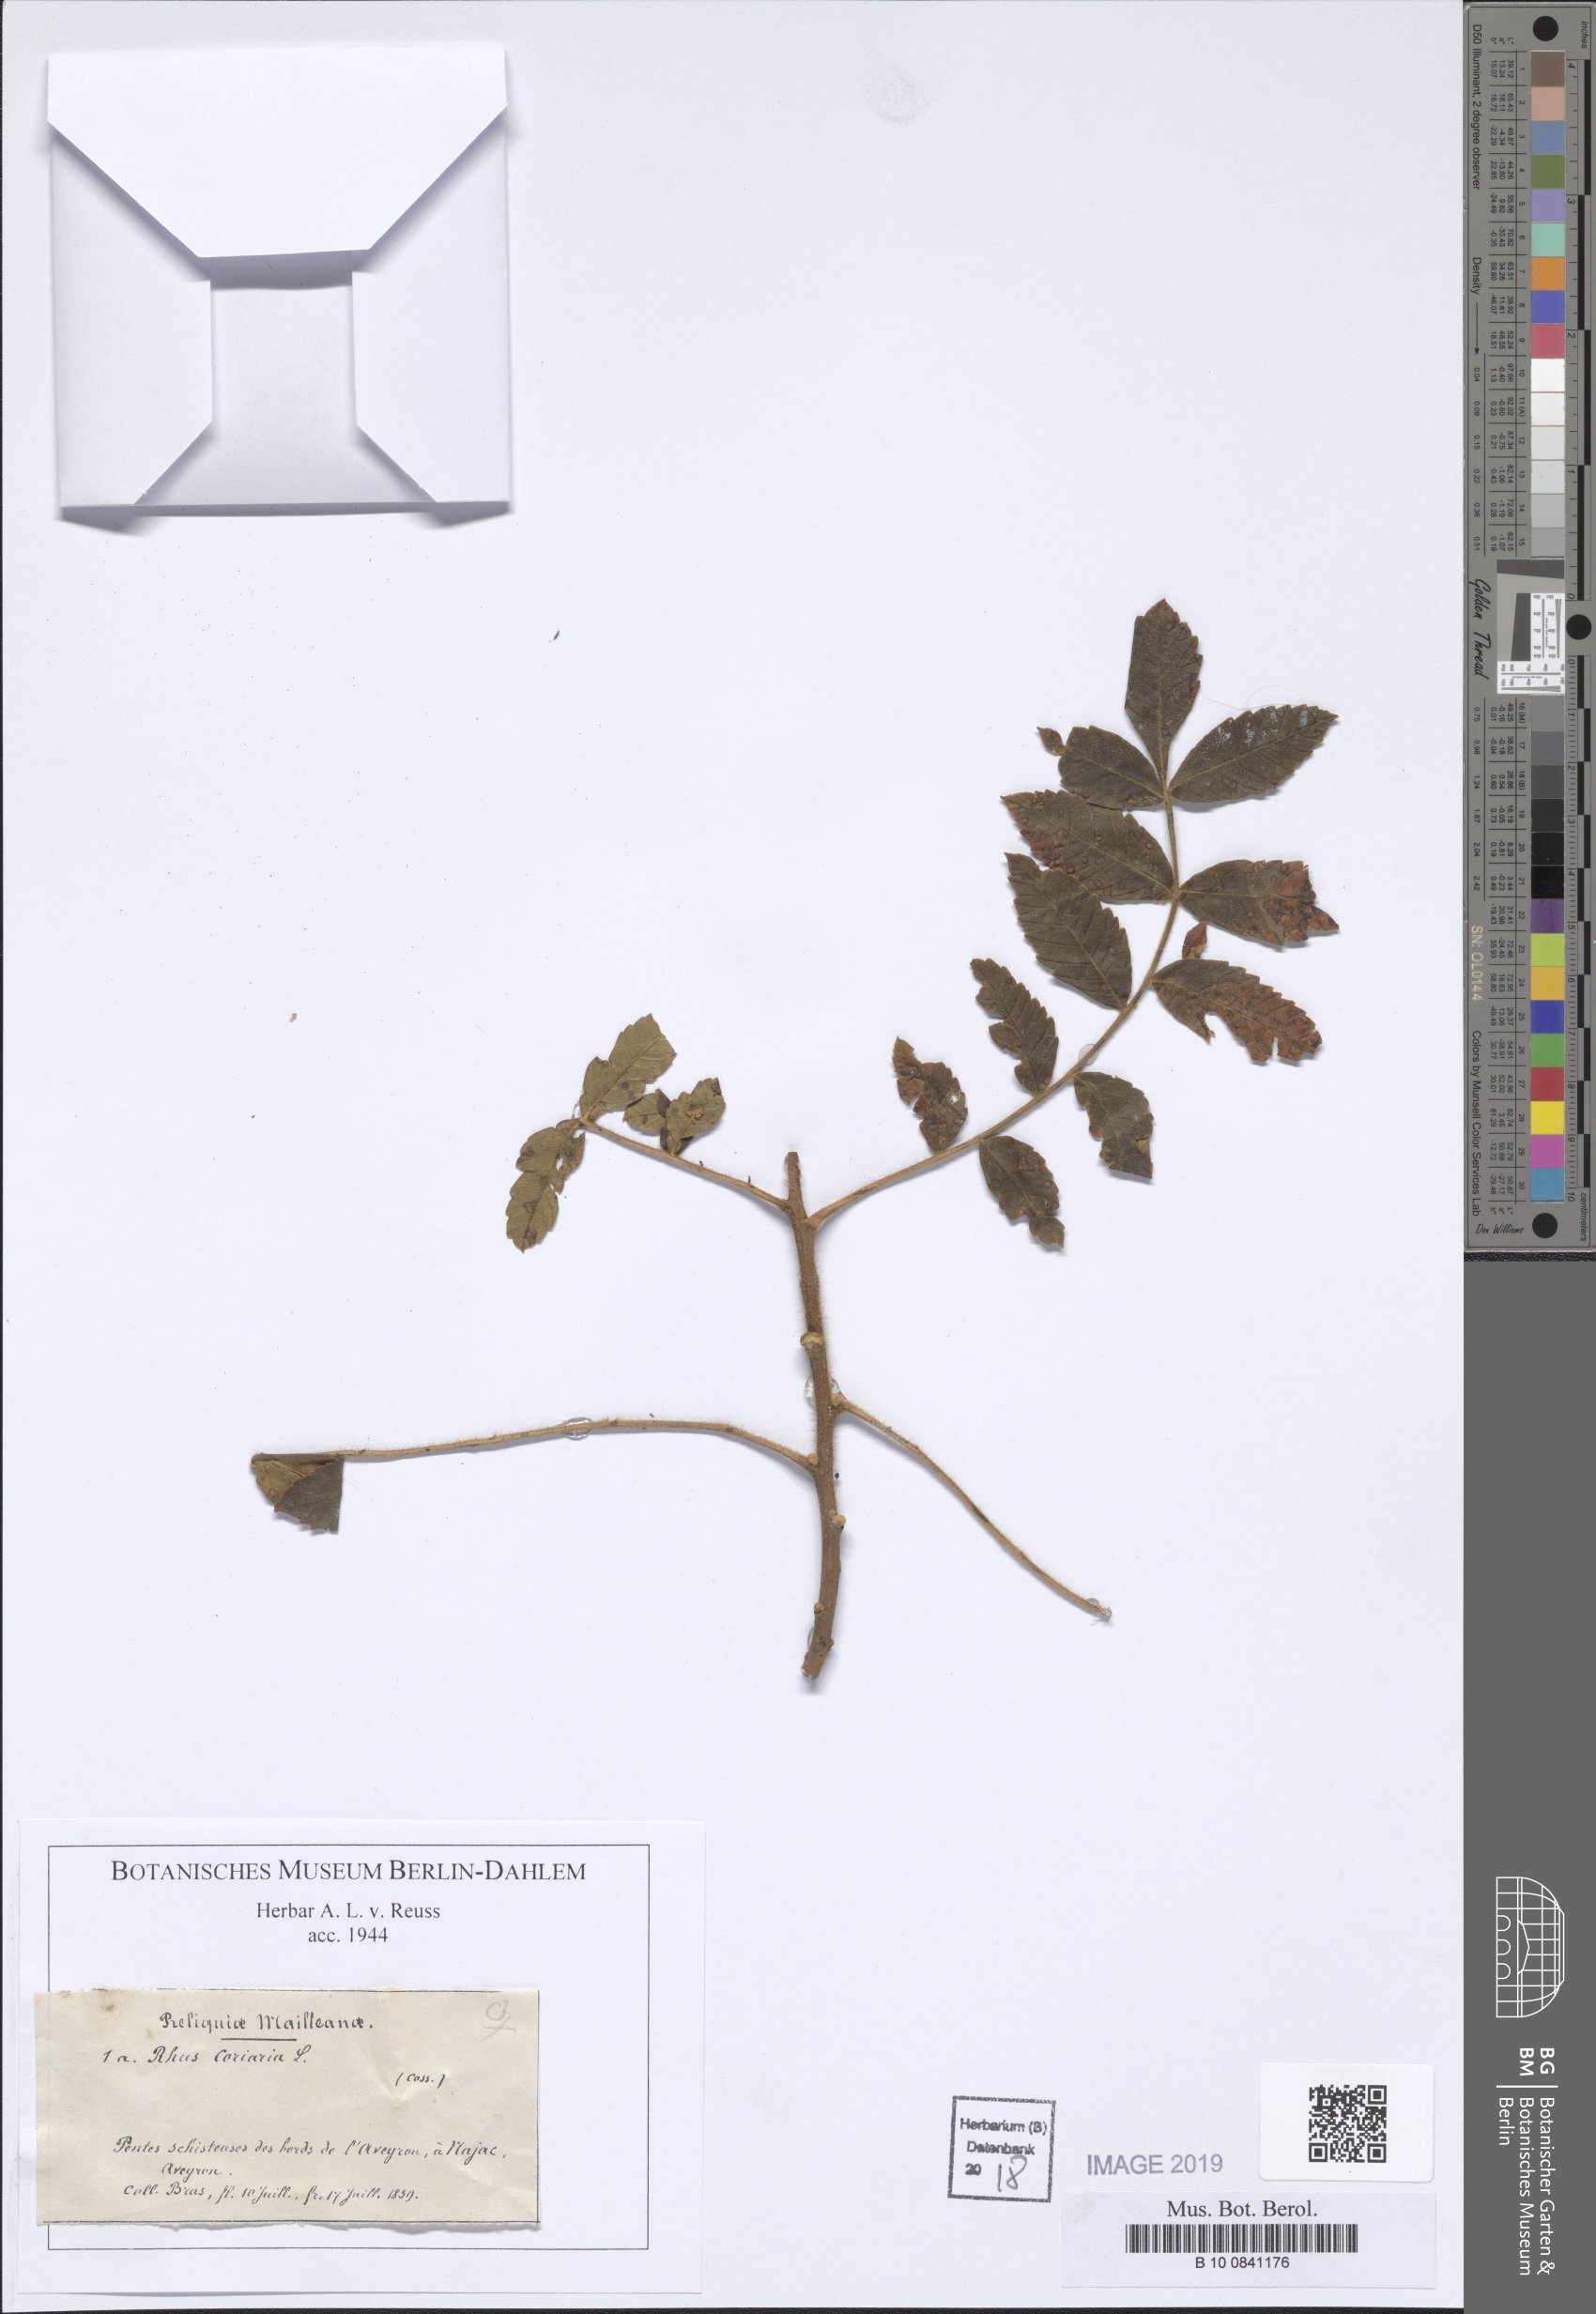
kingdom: Plantae
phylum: Tracheophyta
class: Magnoliopsida
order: Sapindales
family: Anacardiaceae
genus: Rhus
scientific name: Rhus coriaria
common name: Tanner's sumach
